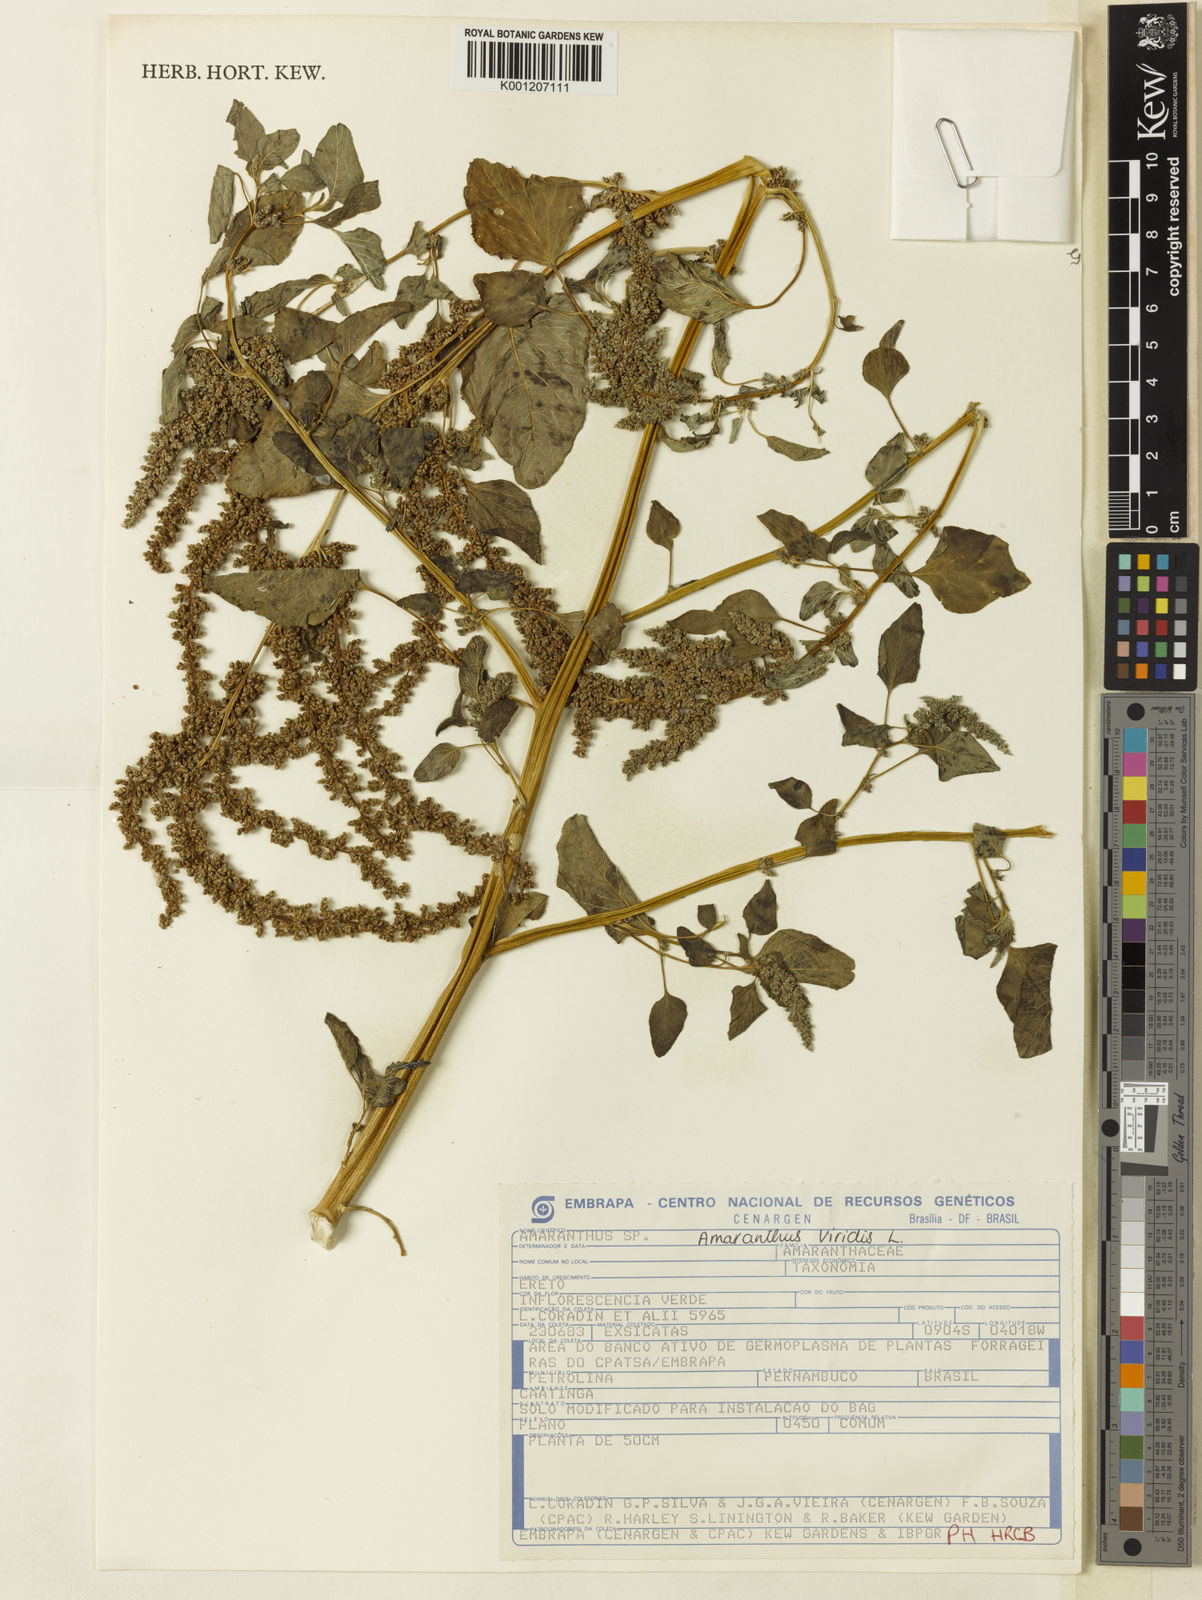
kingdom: Plantae
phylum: Tracheophyta
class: Magnoliopsida
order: Caryophyllales
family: Amaranthaceae
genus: Amaranthus
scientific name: Amaranthus viridis
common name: Slender amaranth
